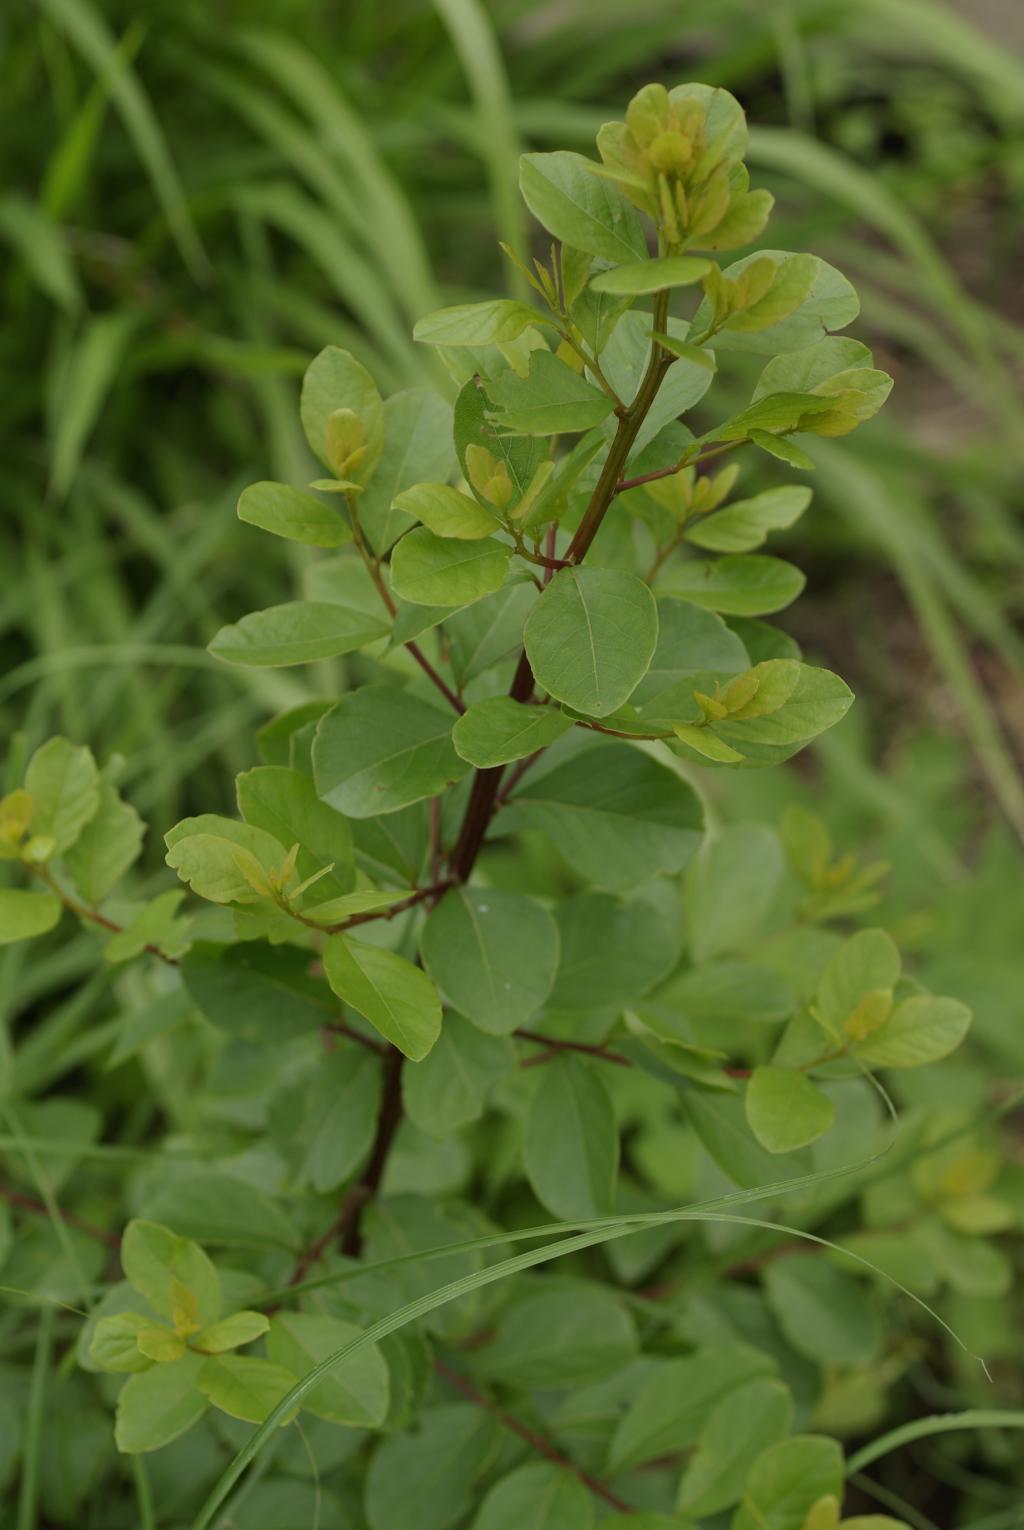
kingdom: Plantae
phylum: Tracheophyta
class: Magnoliopsida
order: Malpighiales
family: Phyllanthaceae
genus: Flueggea
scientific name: Flueggea virosa
